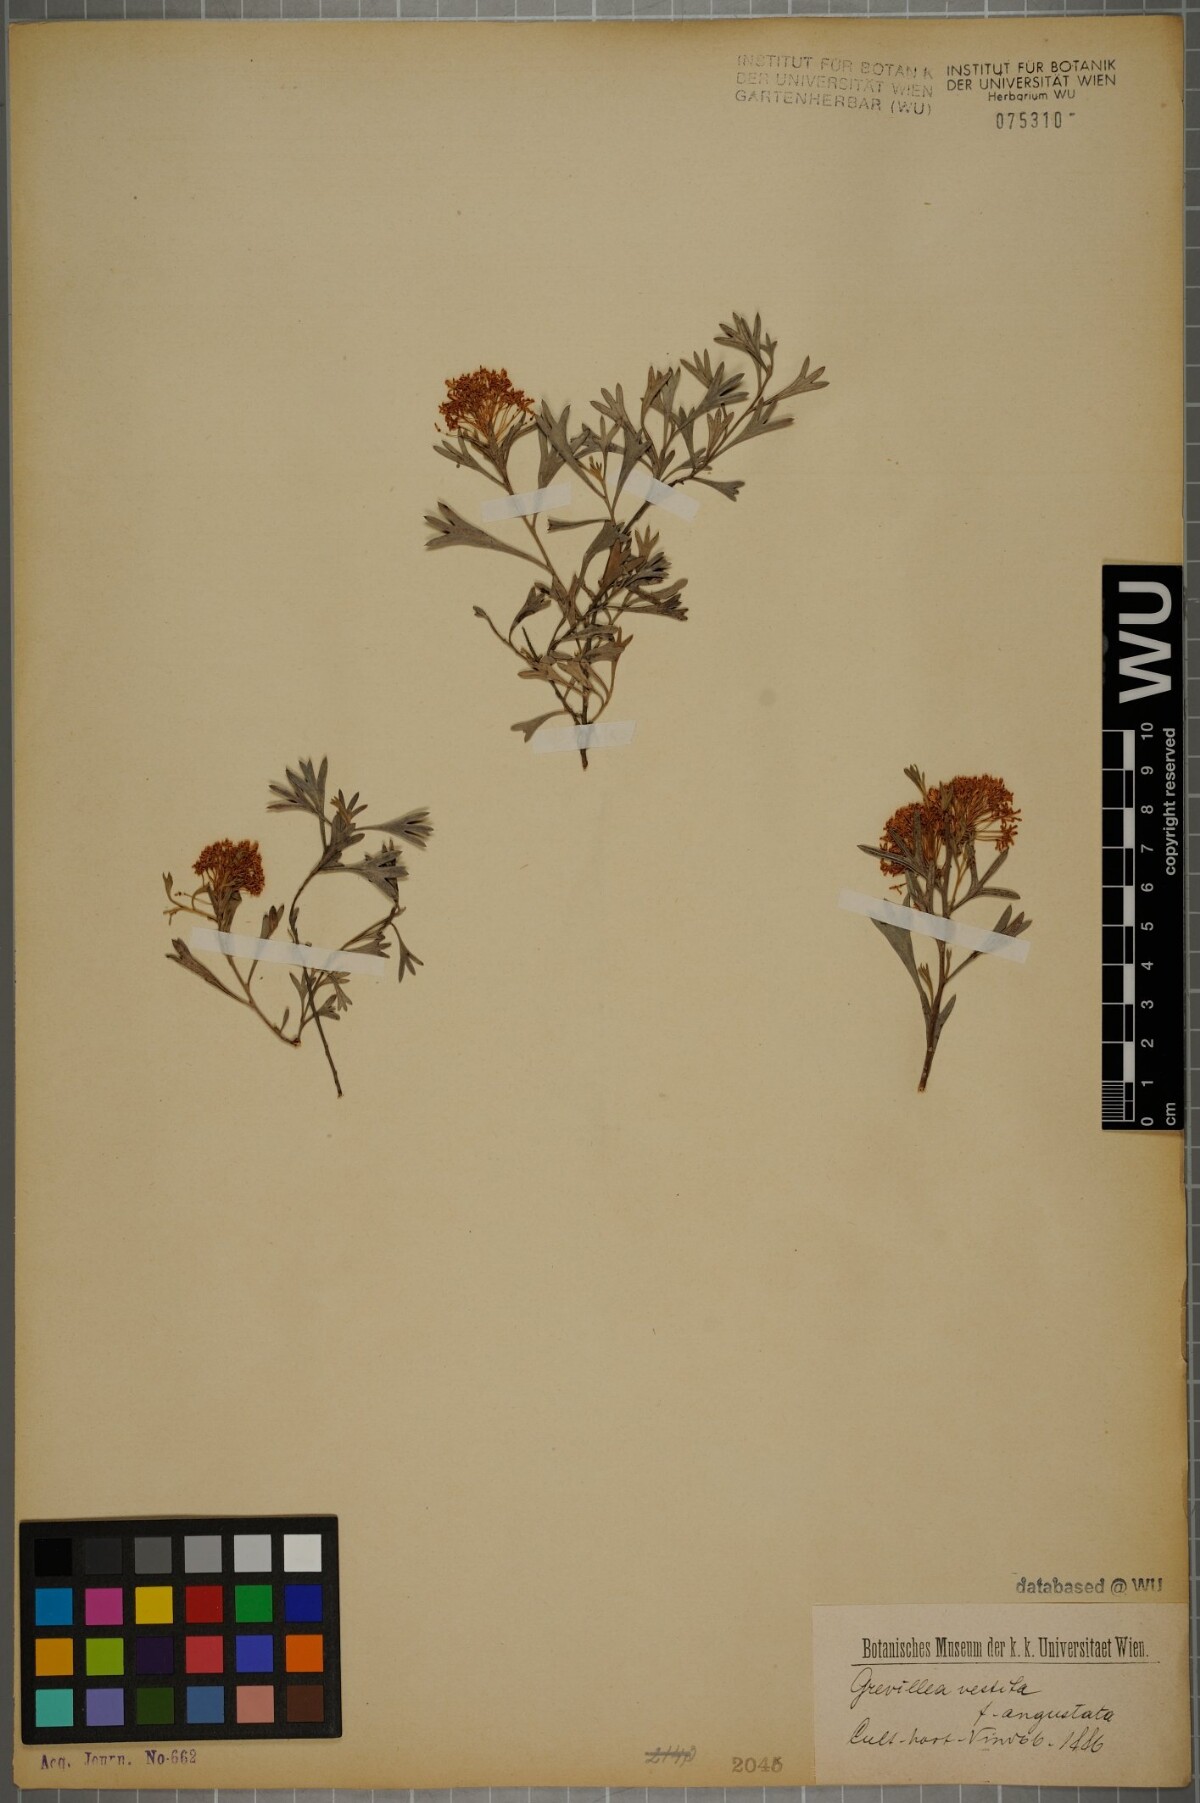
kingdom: Plantae
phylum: Tracheophyta
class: Magnoliopsida
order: Proteales
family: Proteaceae
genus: Grevillea
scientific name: Grevillea vestita
